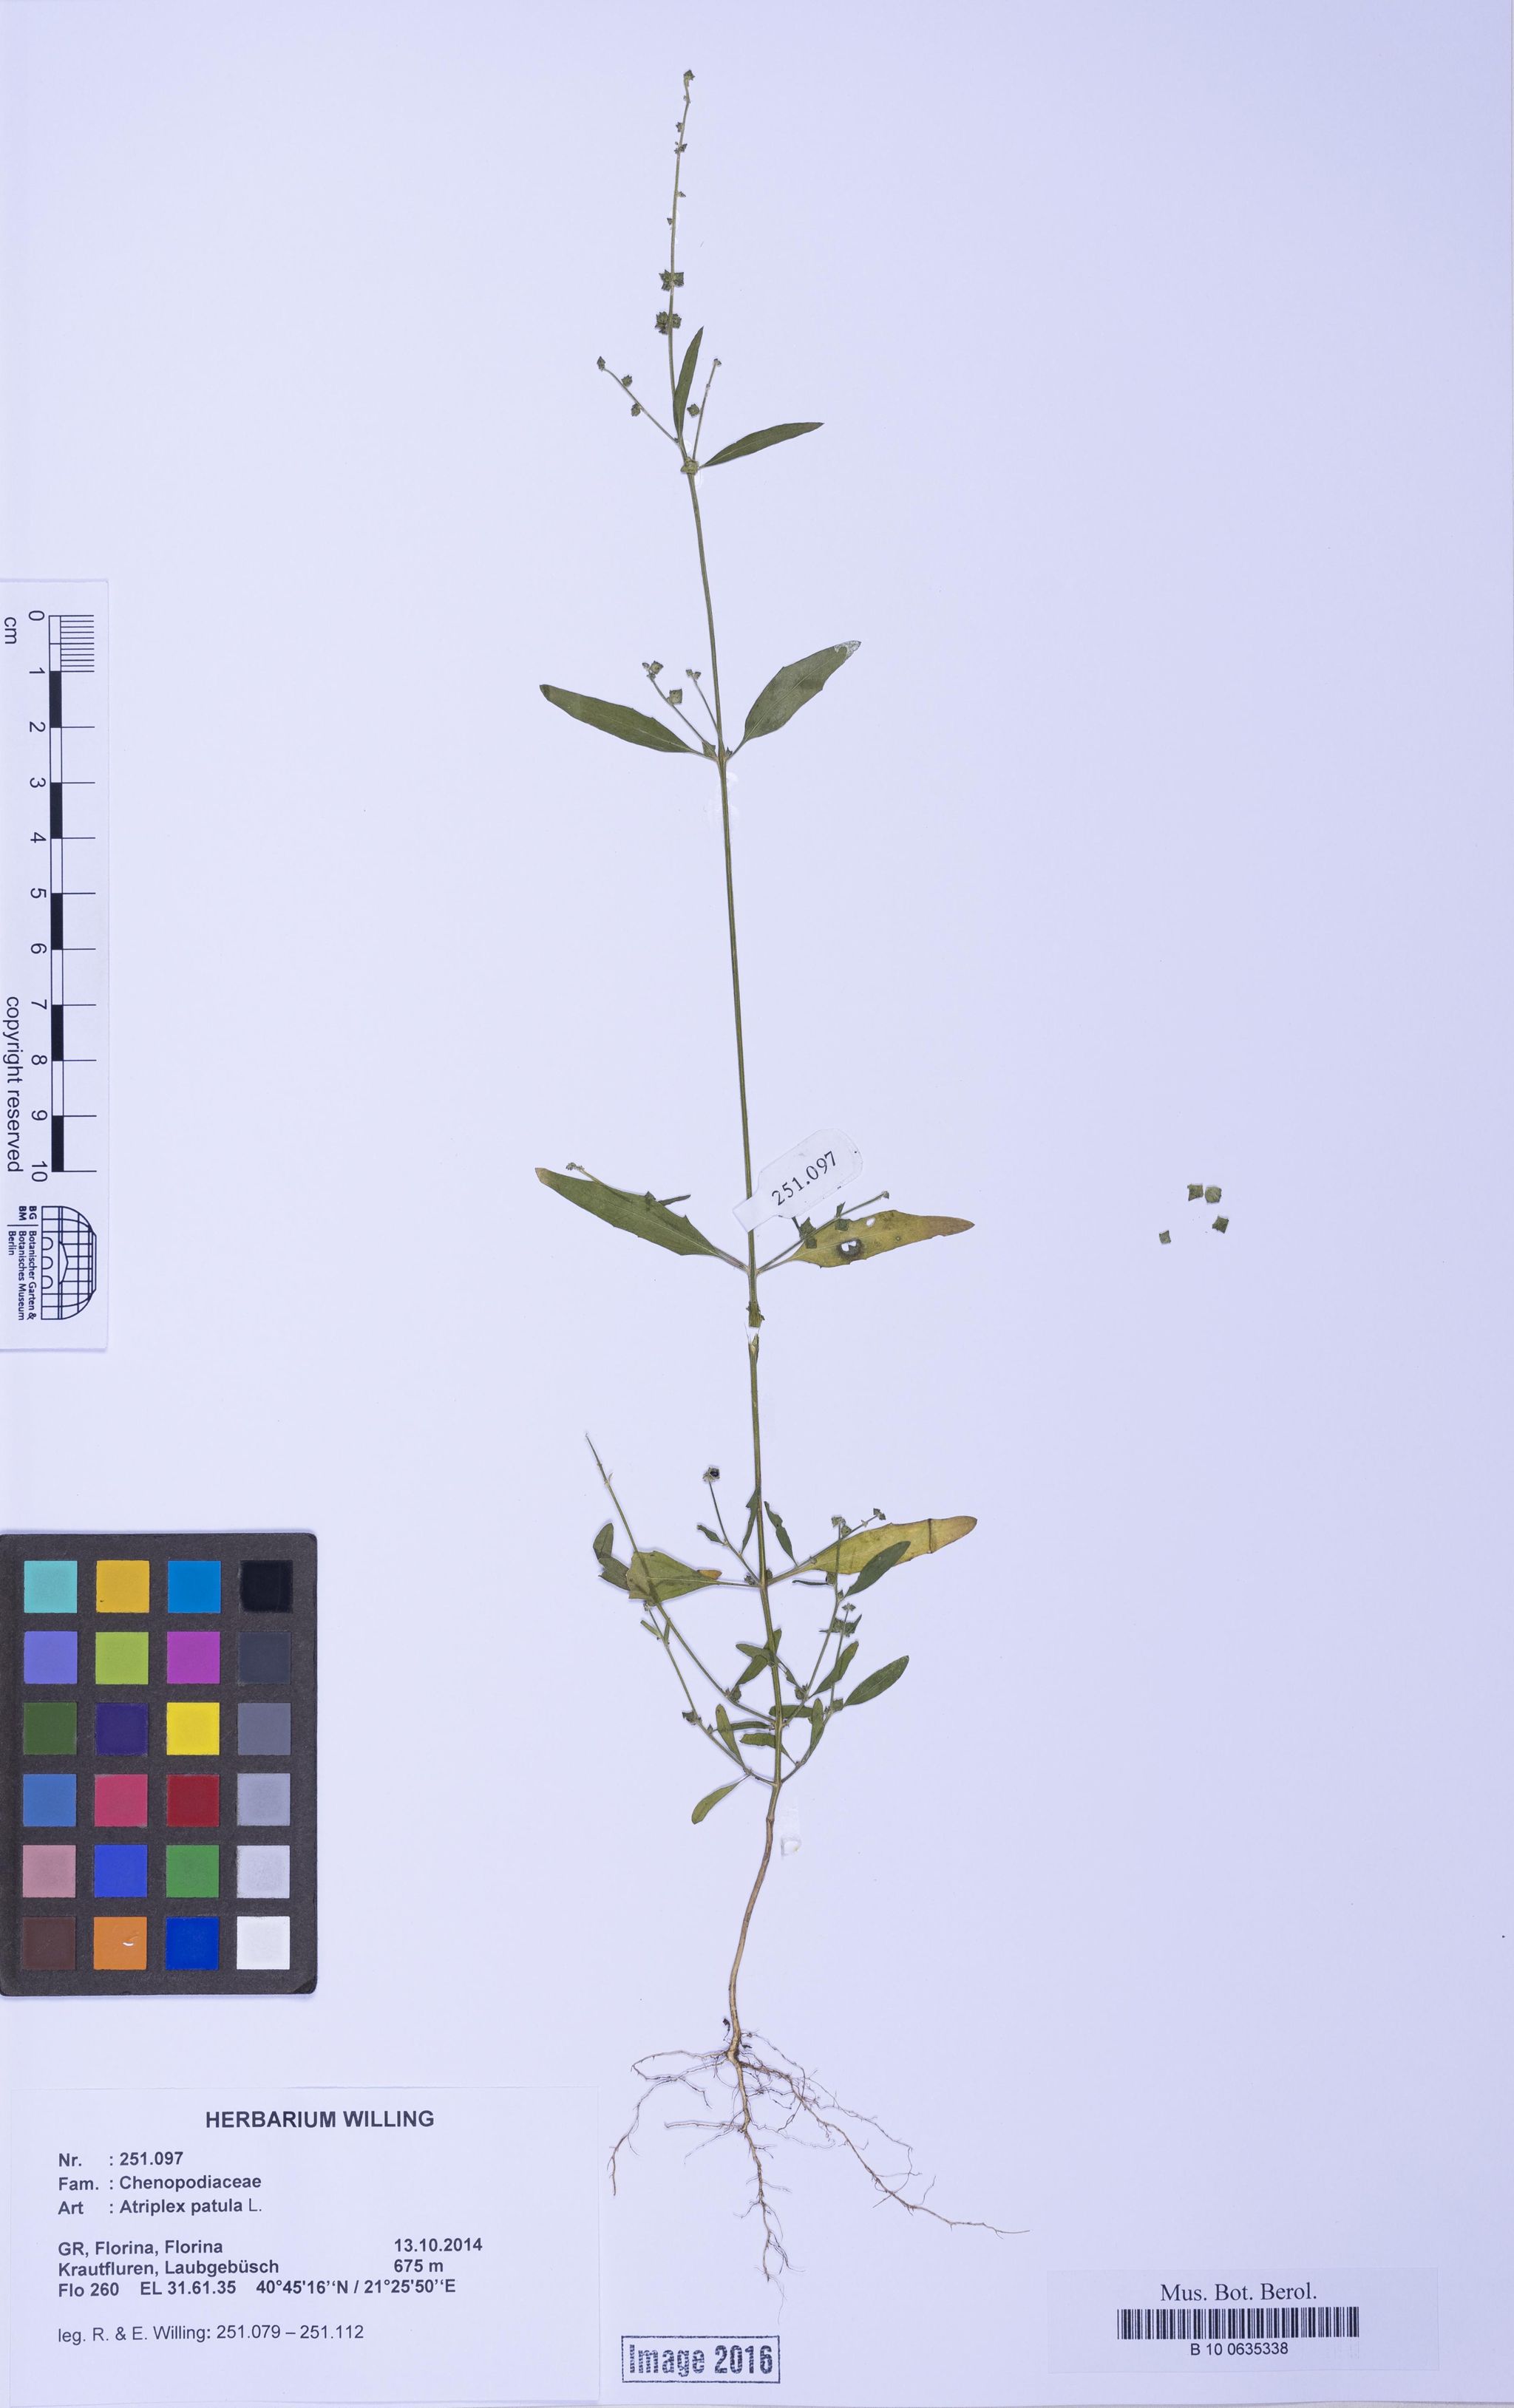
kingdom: Plantae
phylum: Tracheophyta
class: Magnoliopsida
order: Caryophyllales
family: Amaranthaceae
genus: Atriplex
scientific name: Atriplex patula
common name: Common orache
